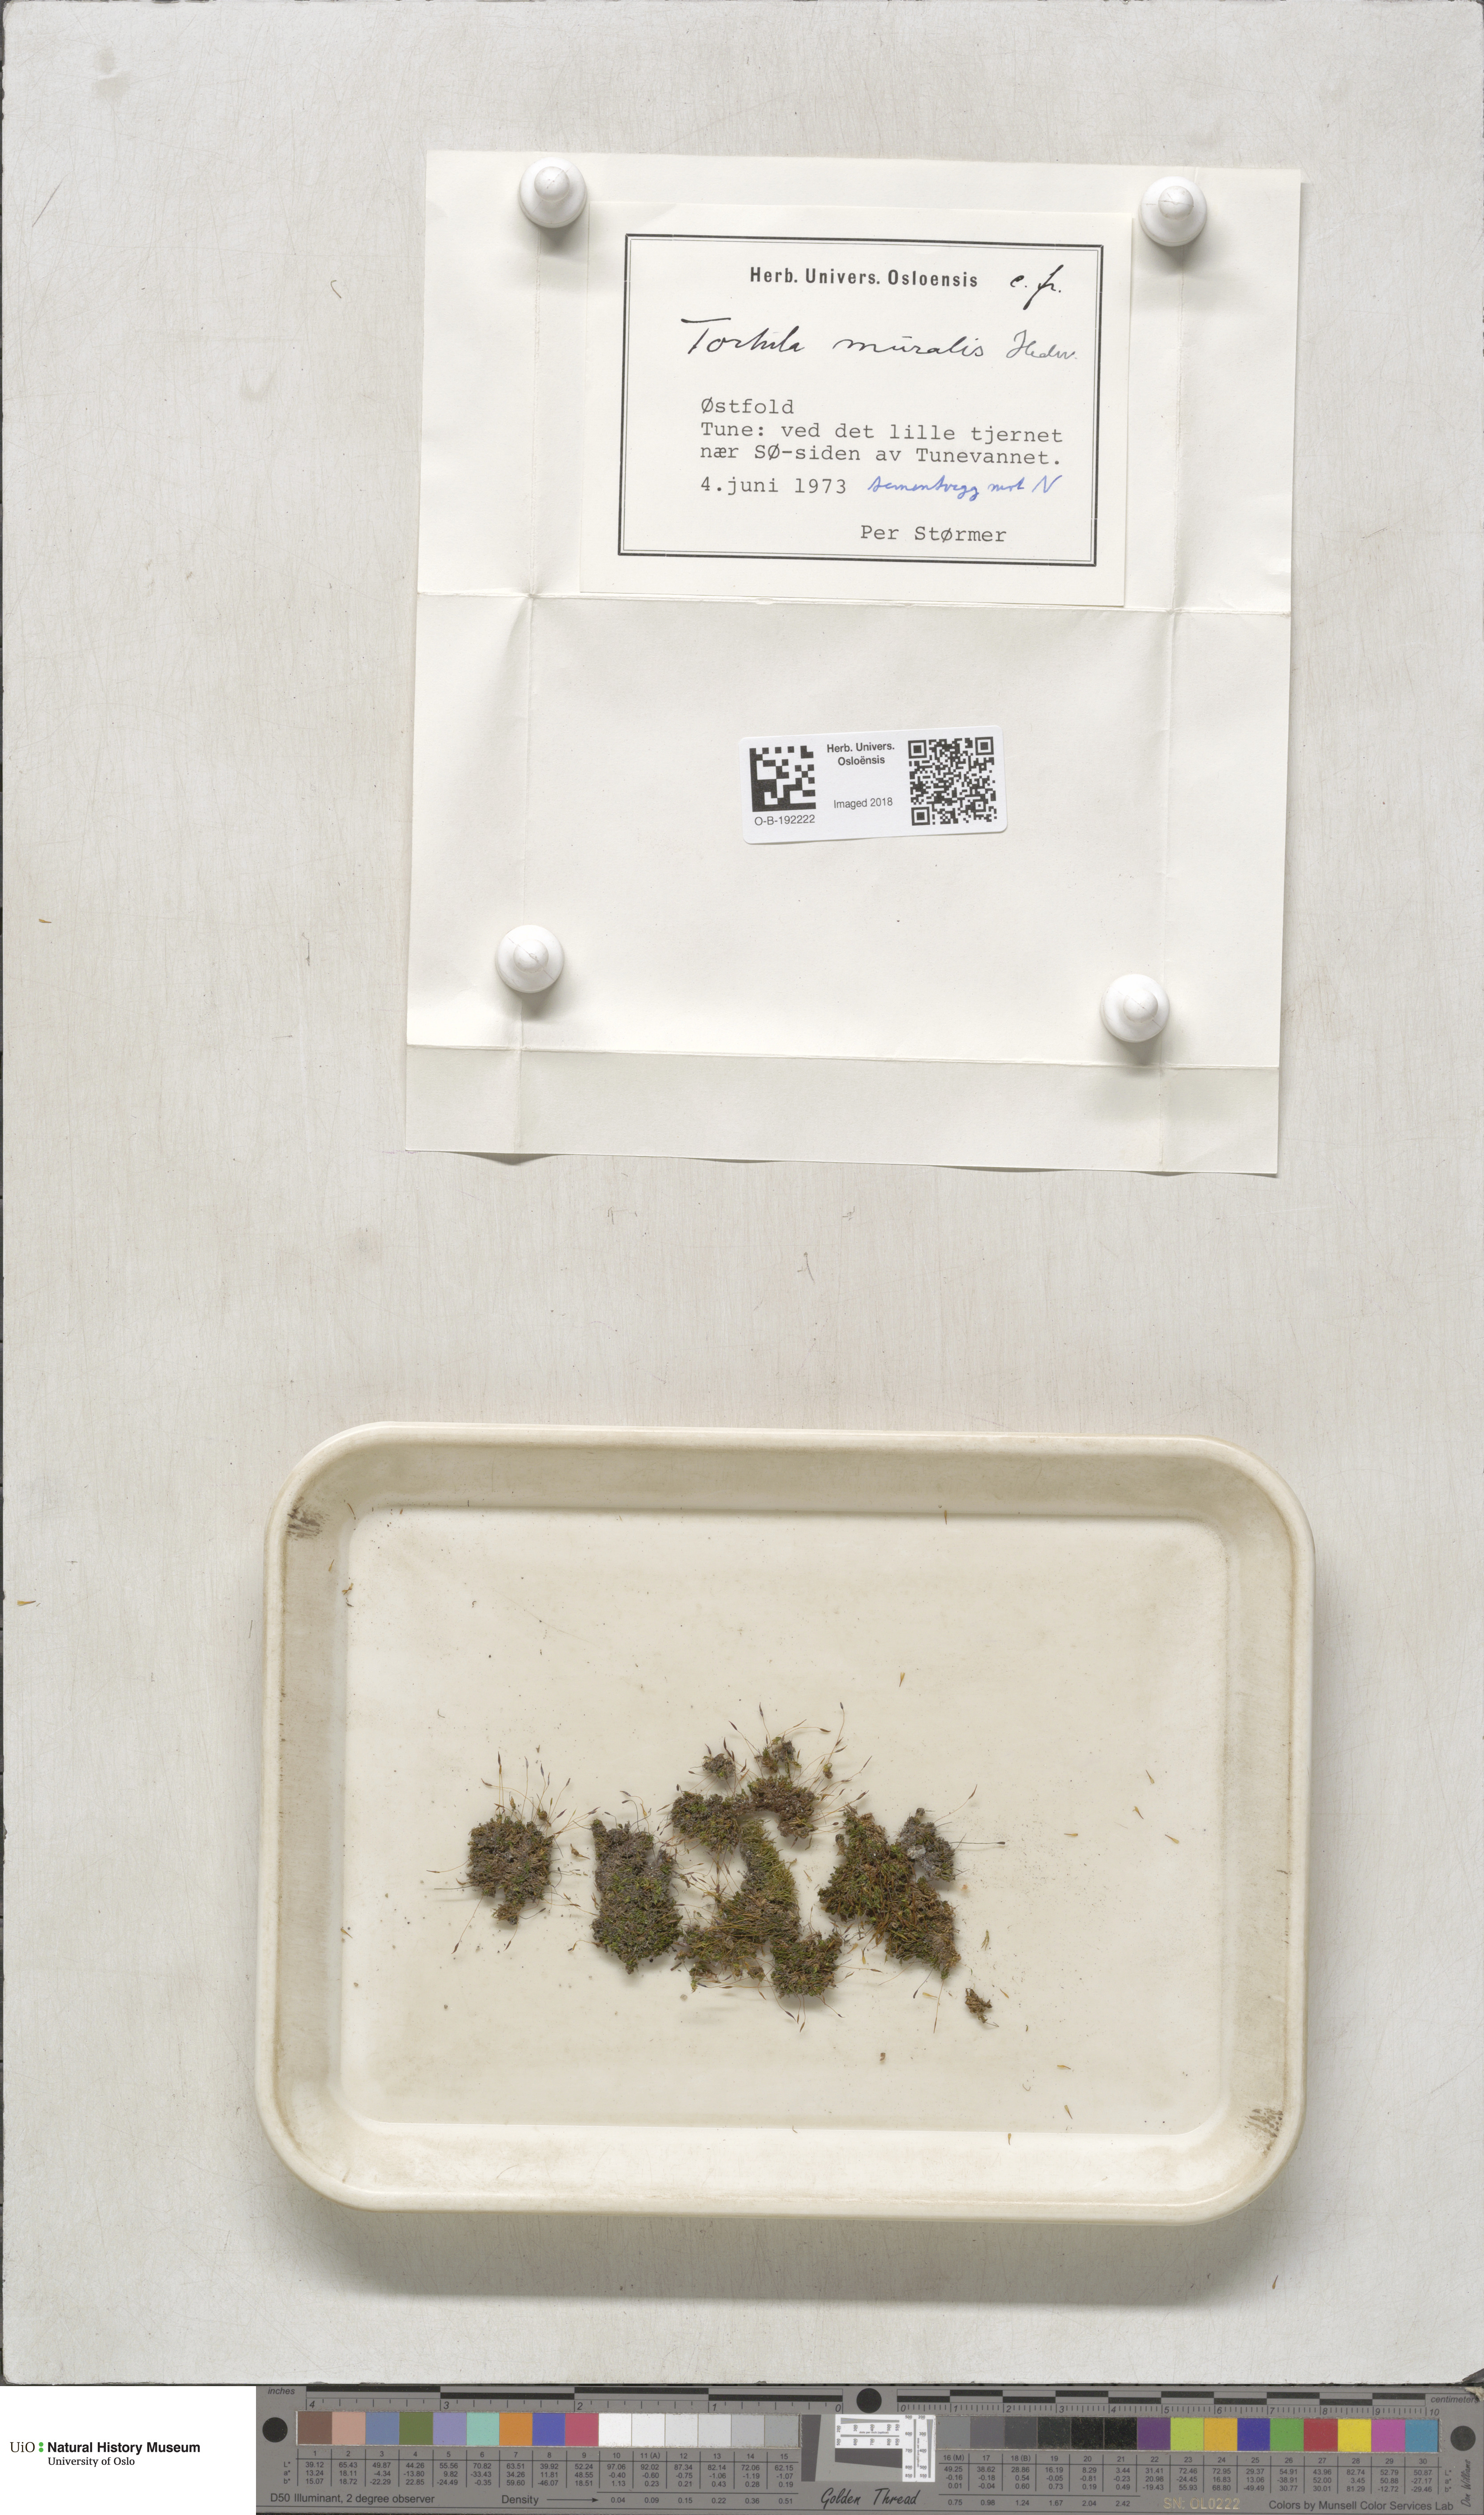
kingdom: Plantae
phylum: Bryophyta
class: Bryopsida
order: Pottiales
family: Pottiaceae
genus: Tortula
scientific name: Tortula muralis
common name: Wall screw-moss
